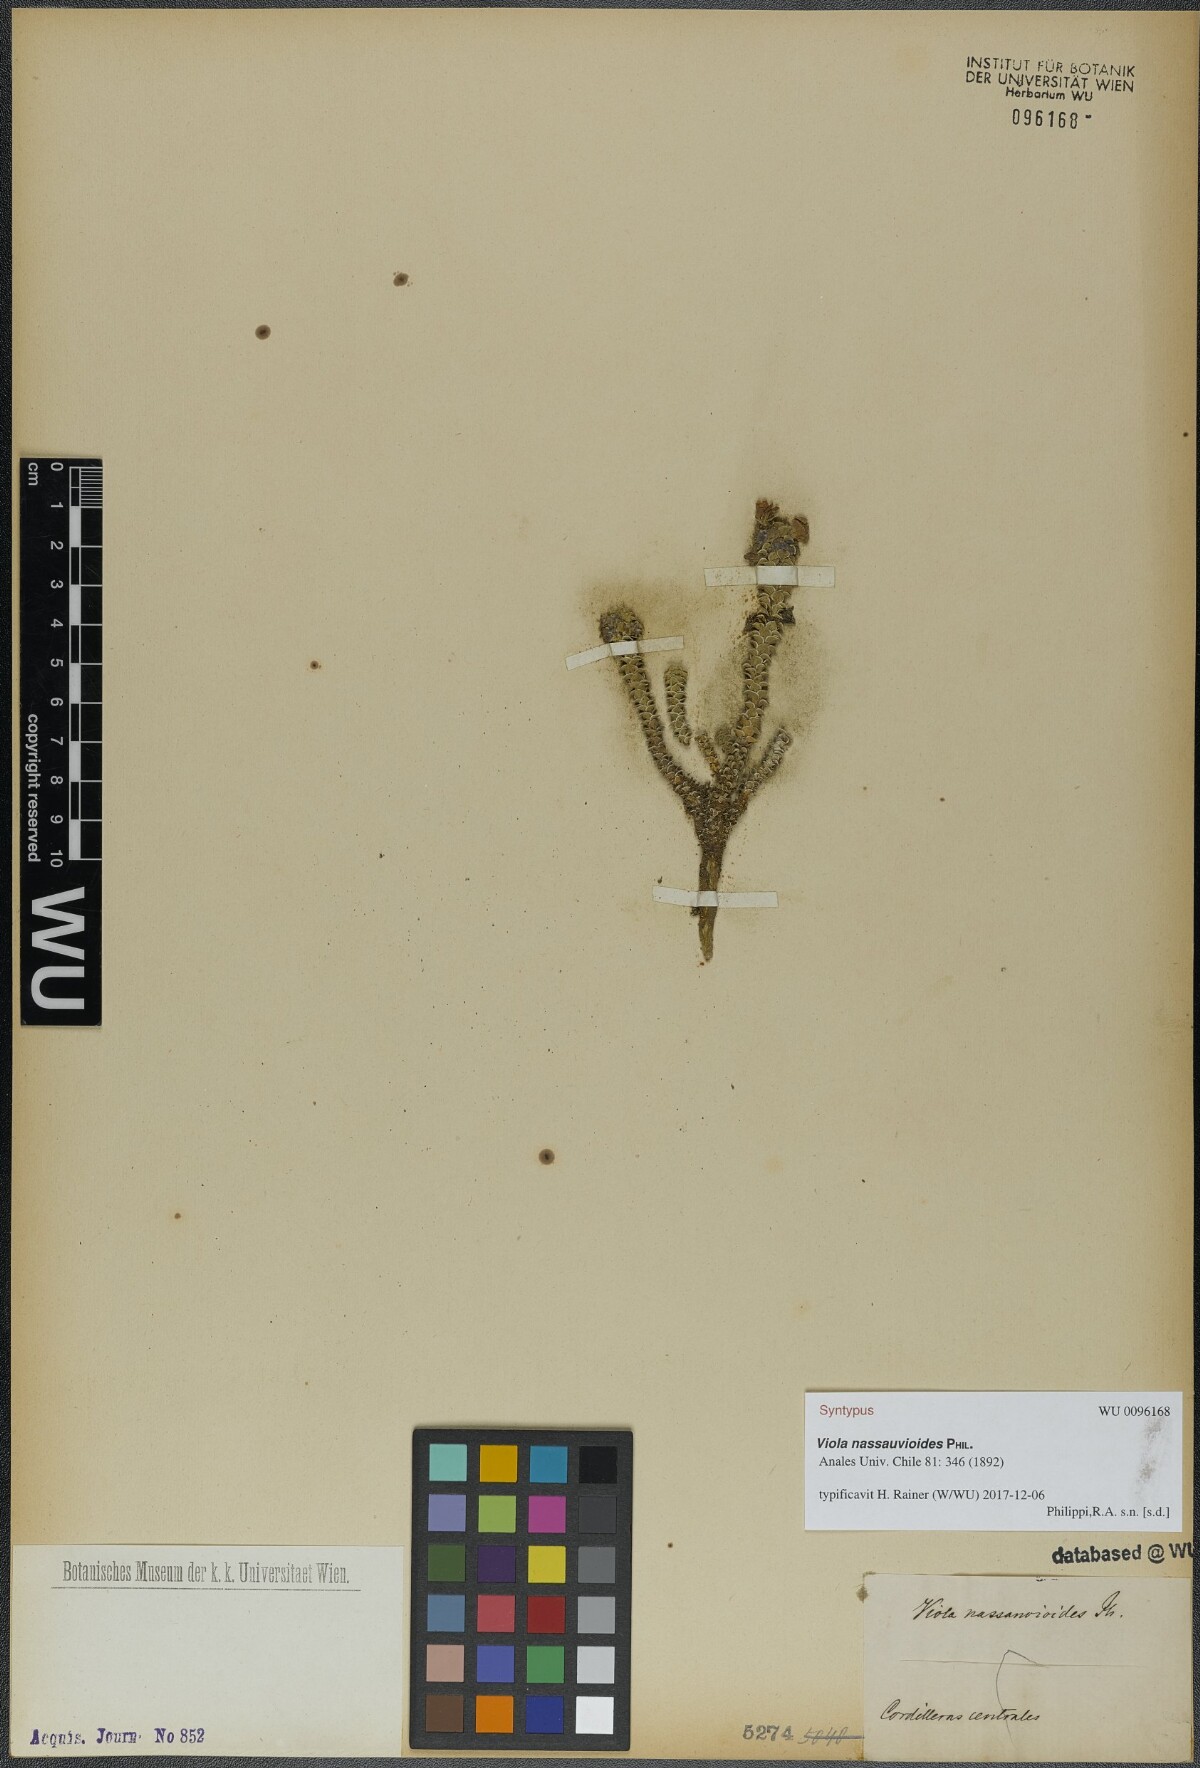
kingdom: Plantae
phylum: Tracheophyta
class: Magnoliopsida
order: Malpighiales
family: Violaceae
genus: Viola
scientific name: Viola nassauvioides
